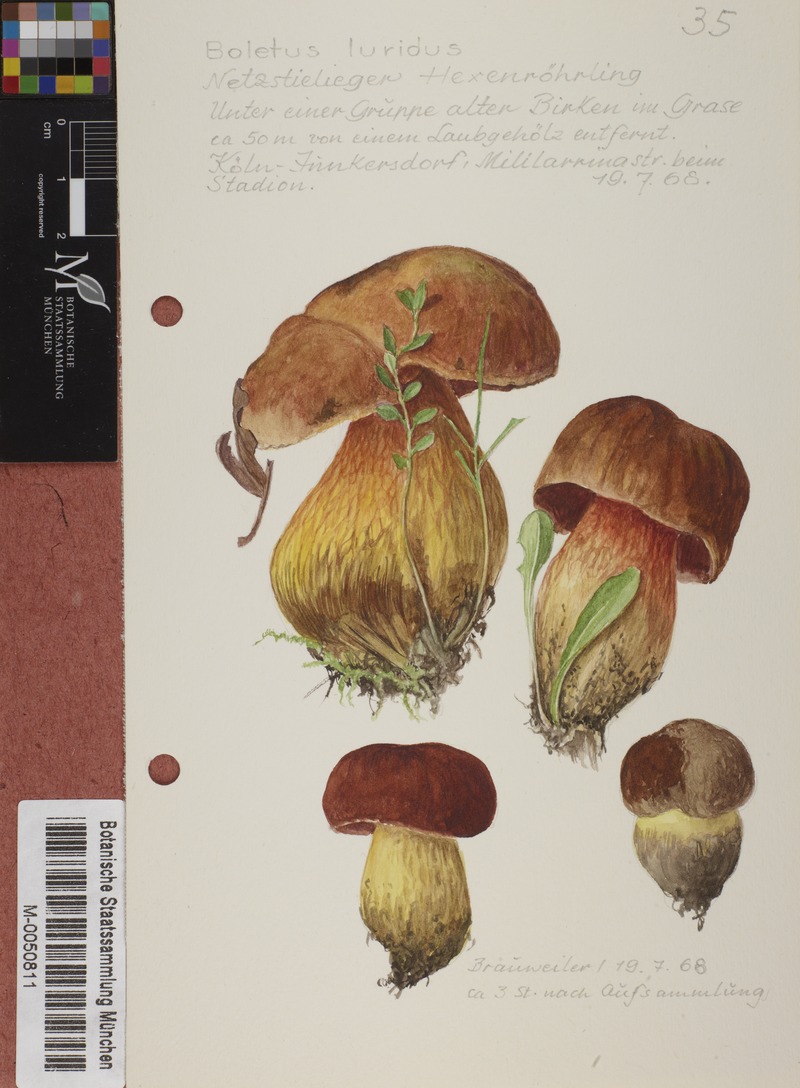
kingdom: Fungi
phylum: Basidiomycota
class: Agaricomycetes
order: Boletales
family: Boletaceae
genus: Suillellus
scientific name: Suillellus luridus
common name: Lurid bolete
